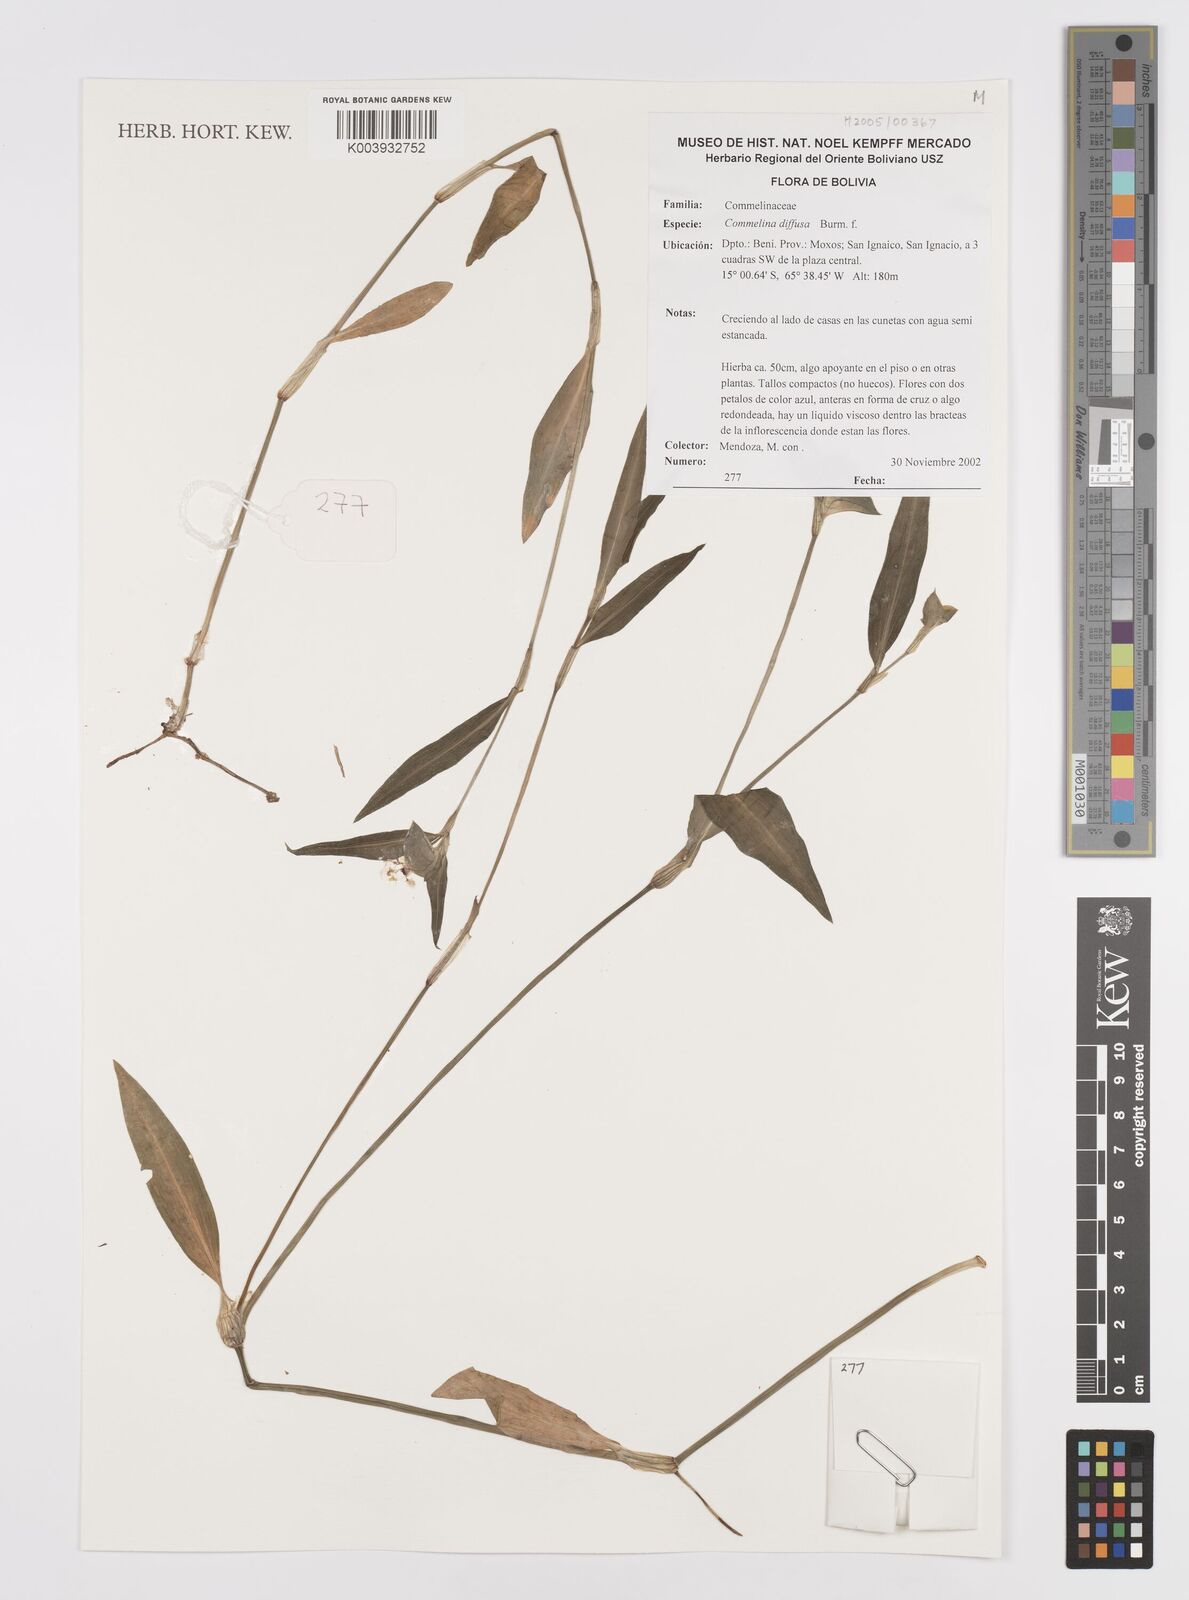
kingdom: Plantae
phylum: Tracheophyta
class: Liliopsida
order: Commelinales
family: Commelinaceae
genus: Commelina
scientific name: Commelina erecta
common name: Blousel blommetjie
